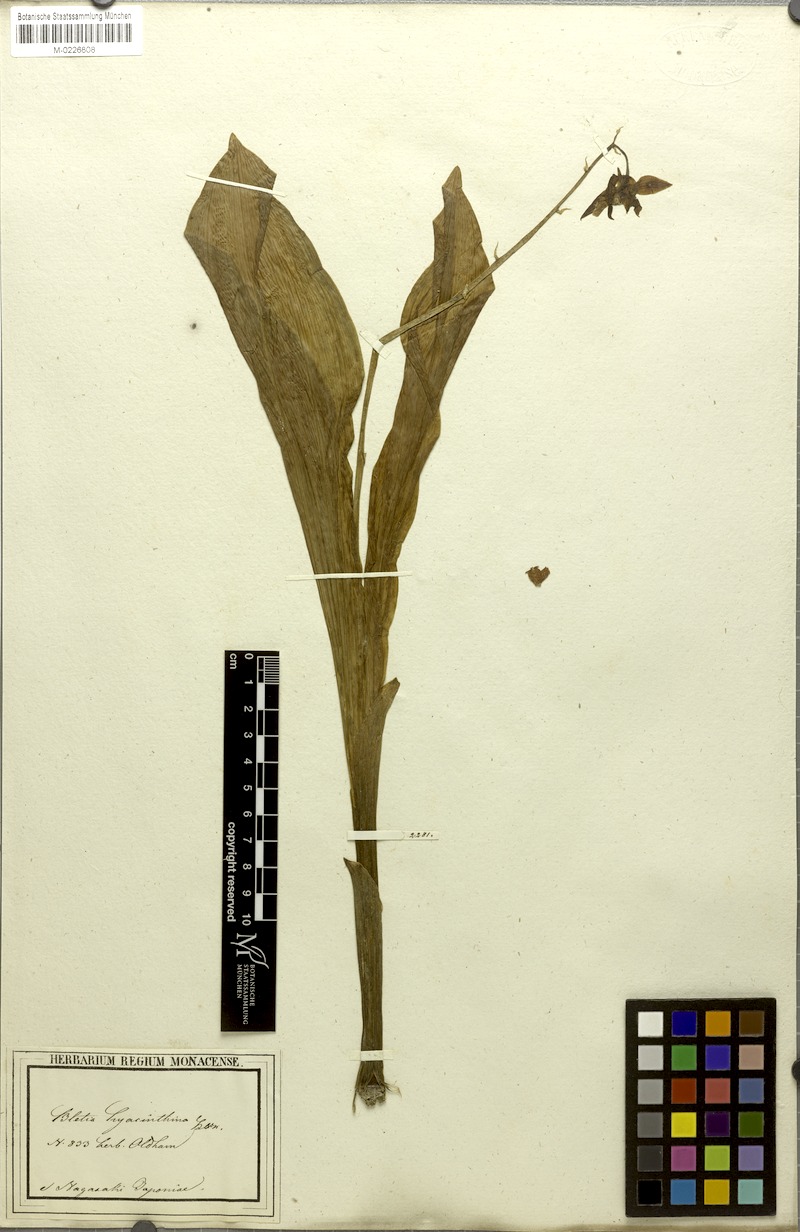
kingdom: Plantae
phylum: Tracheophyta
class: Liliopsida
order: Asparagales
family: Orchidaceae
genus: Bletilla
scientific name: Bletilla striata
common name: Hyacinth orchid
